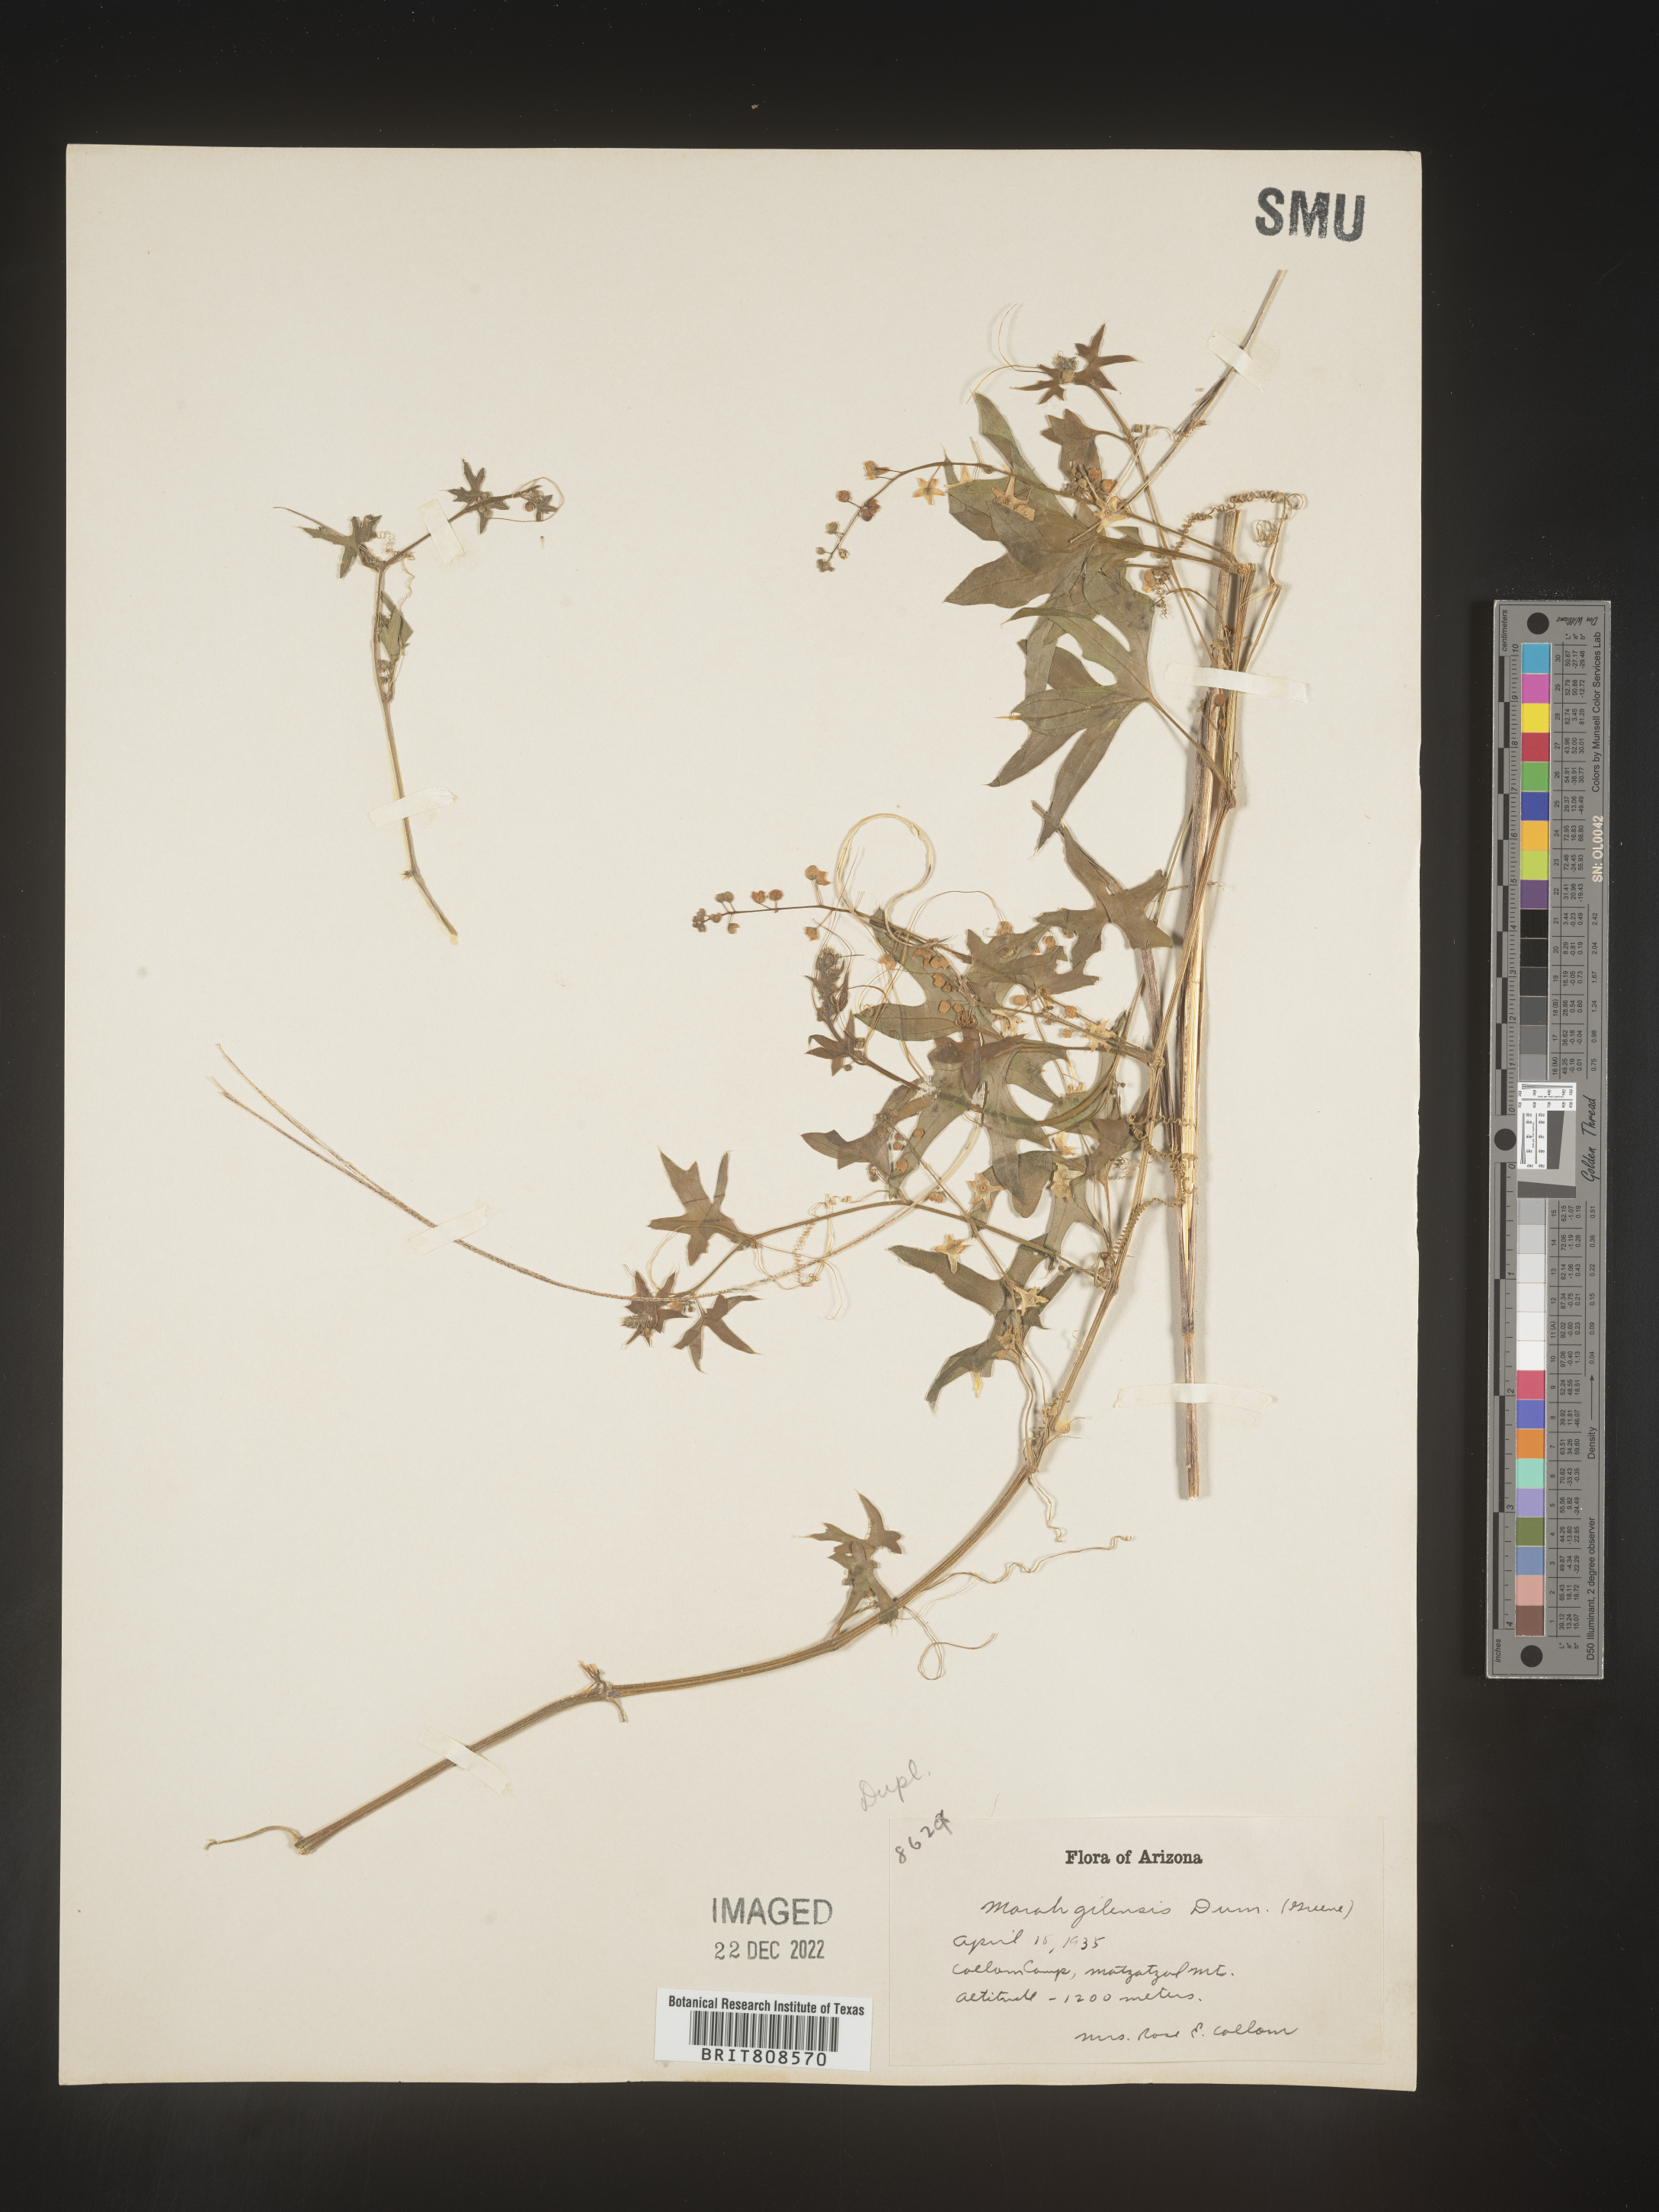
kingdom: Plantae
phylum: Tracheophyta
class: Magnoliopsida
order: Cucurbitales
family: Cucurbitaceae
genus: Marah
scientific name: Marah
